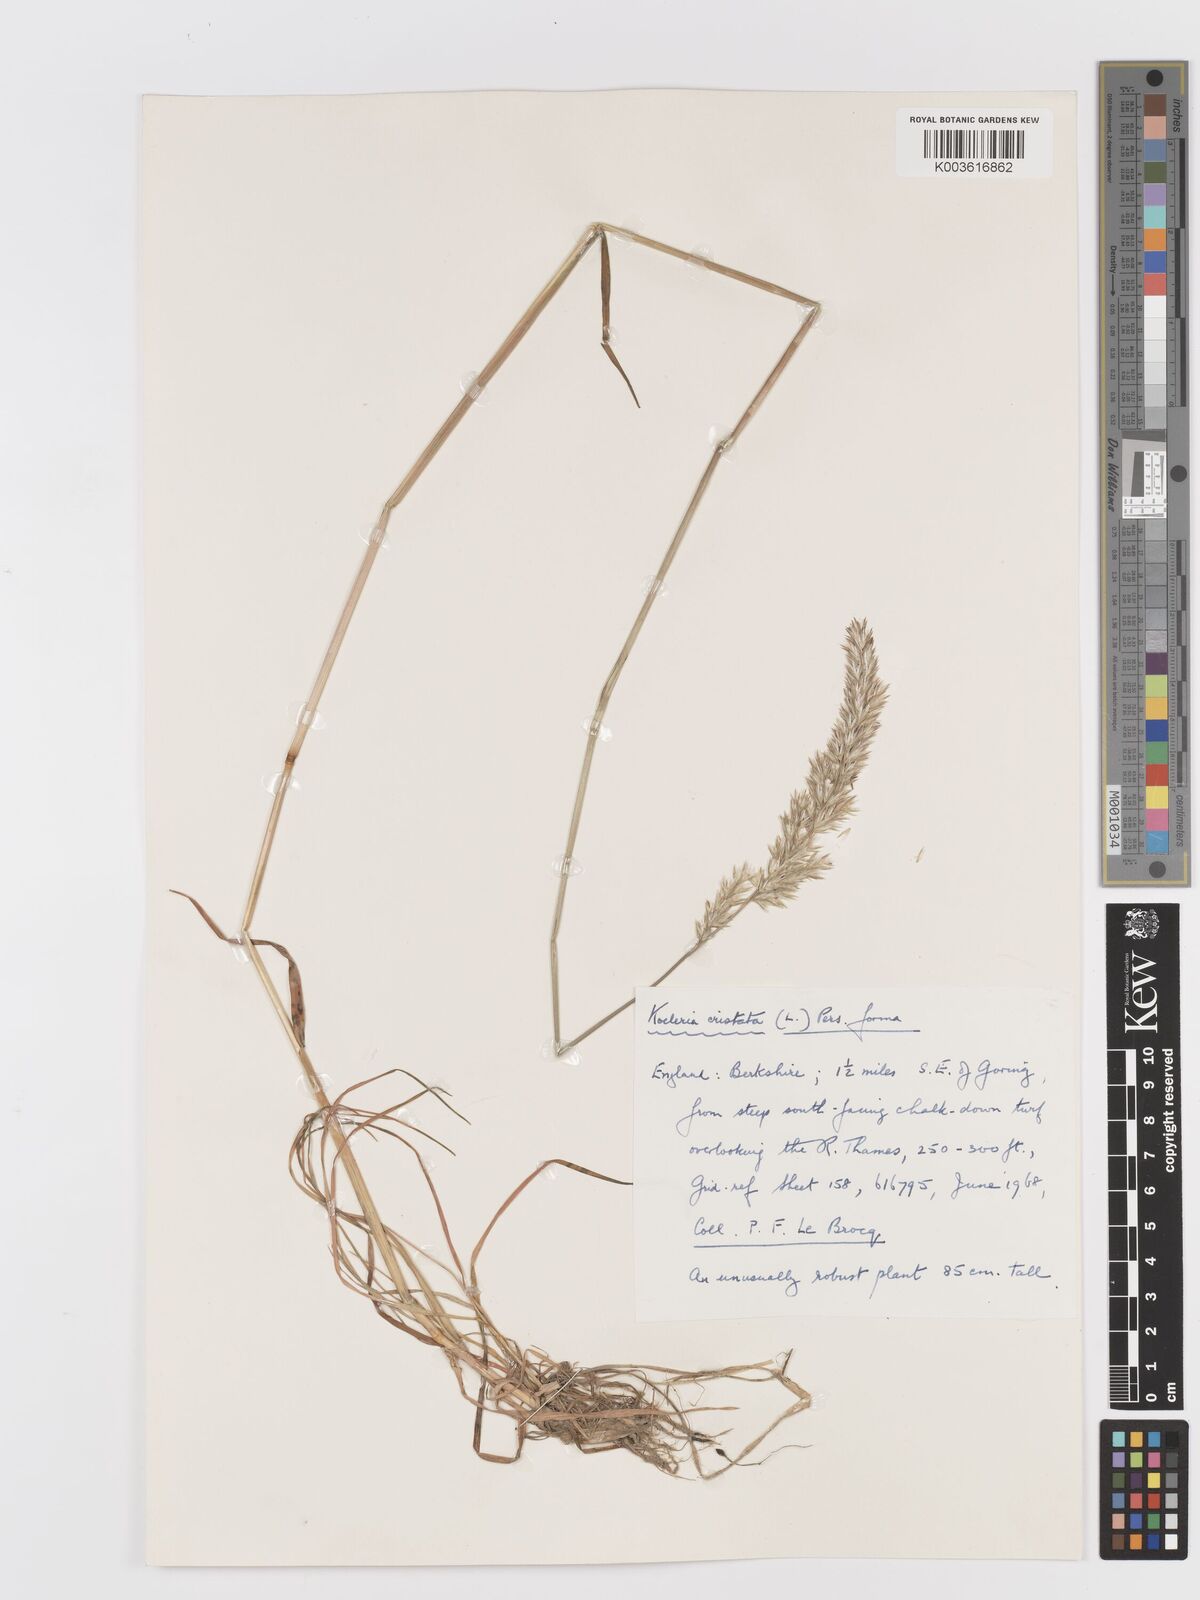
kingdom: Plantae
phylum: Tracheophyta
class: Liliopsida
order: Poales
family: Poaceae
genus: Koeleria
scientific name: Koeleria macrantha
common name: Crested hair-grass
